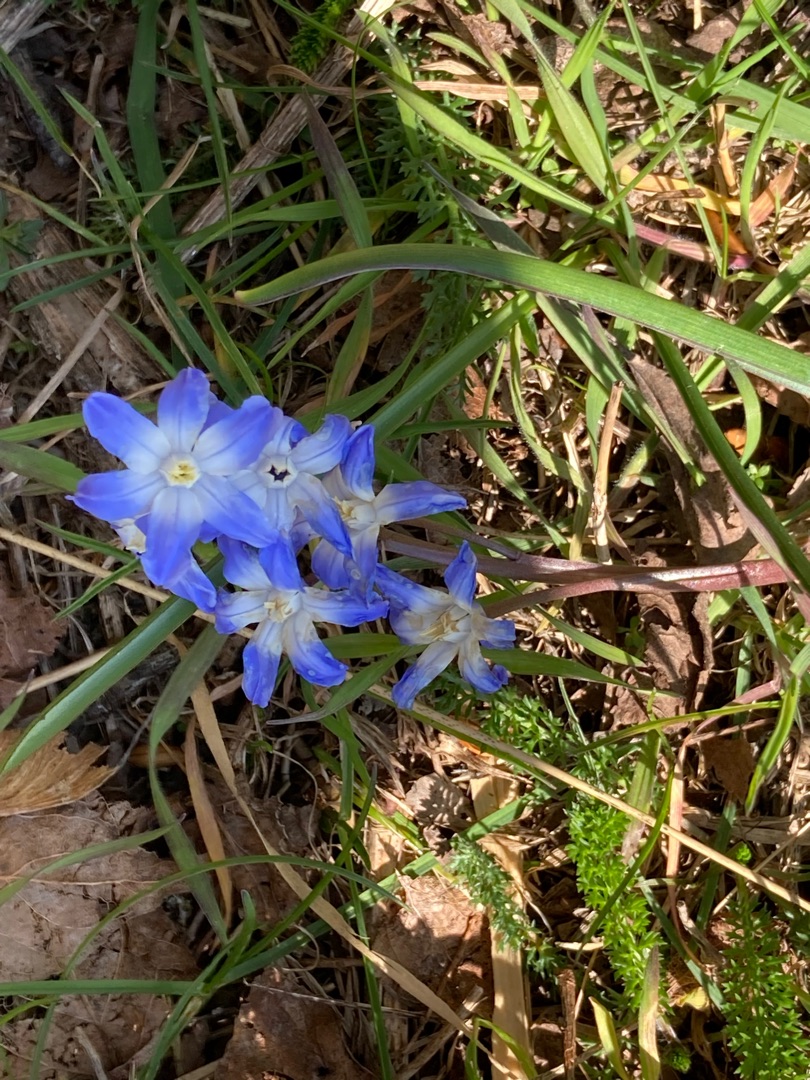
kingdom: Plantae
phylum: Tracheophyta
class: Liliopsida
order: Asparagales
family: Asparagaceae
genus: Scilla
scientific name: Scilla forbesii
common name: Almindelig snepryd
